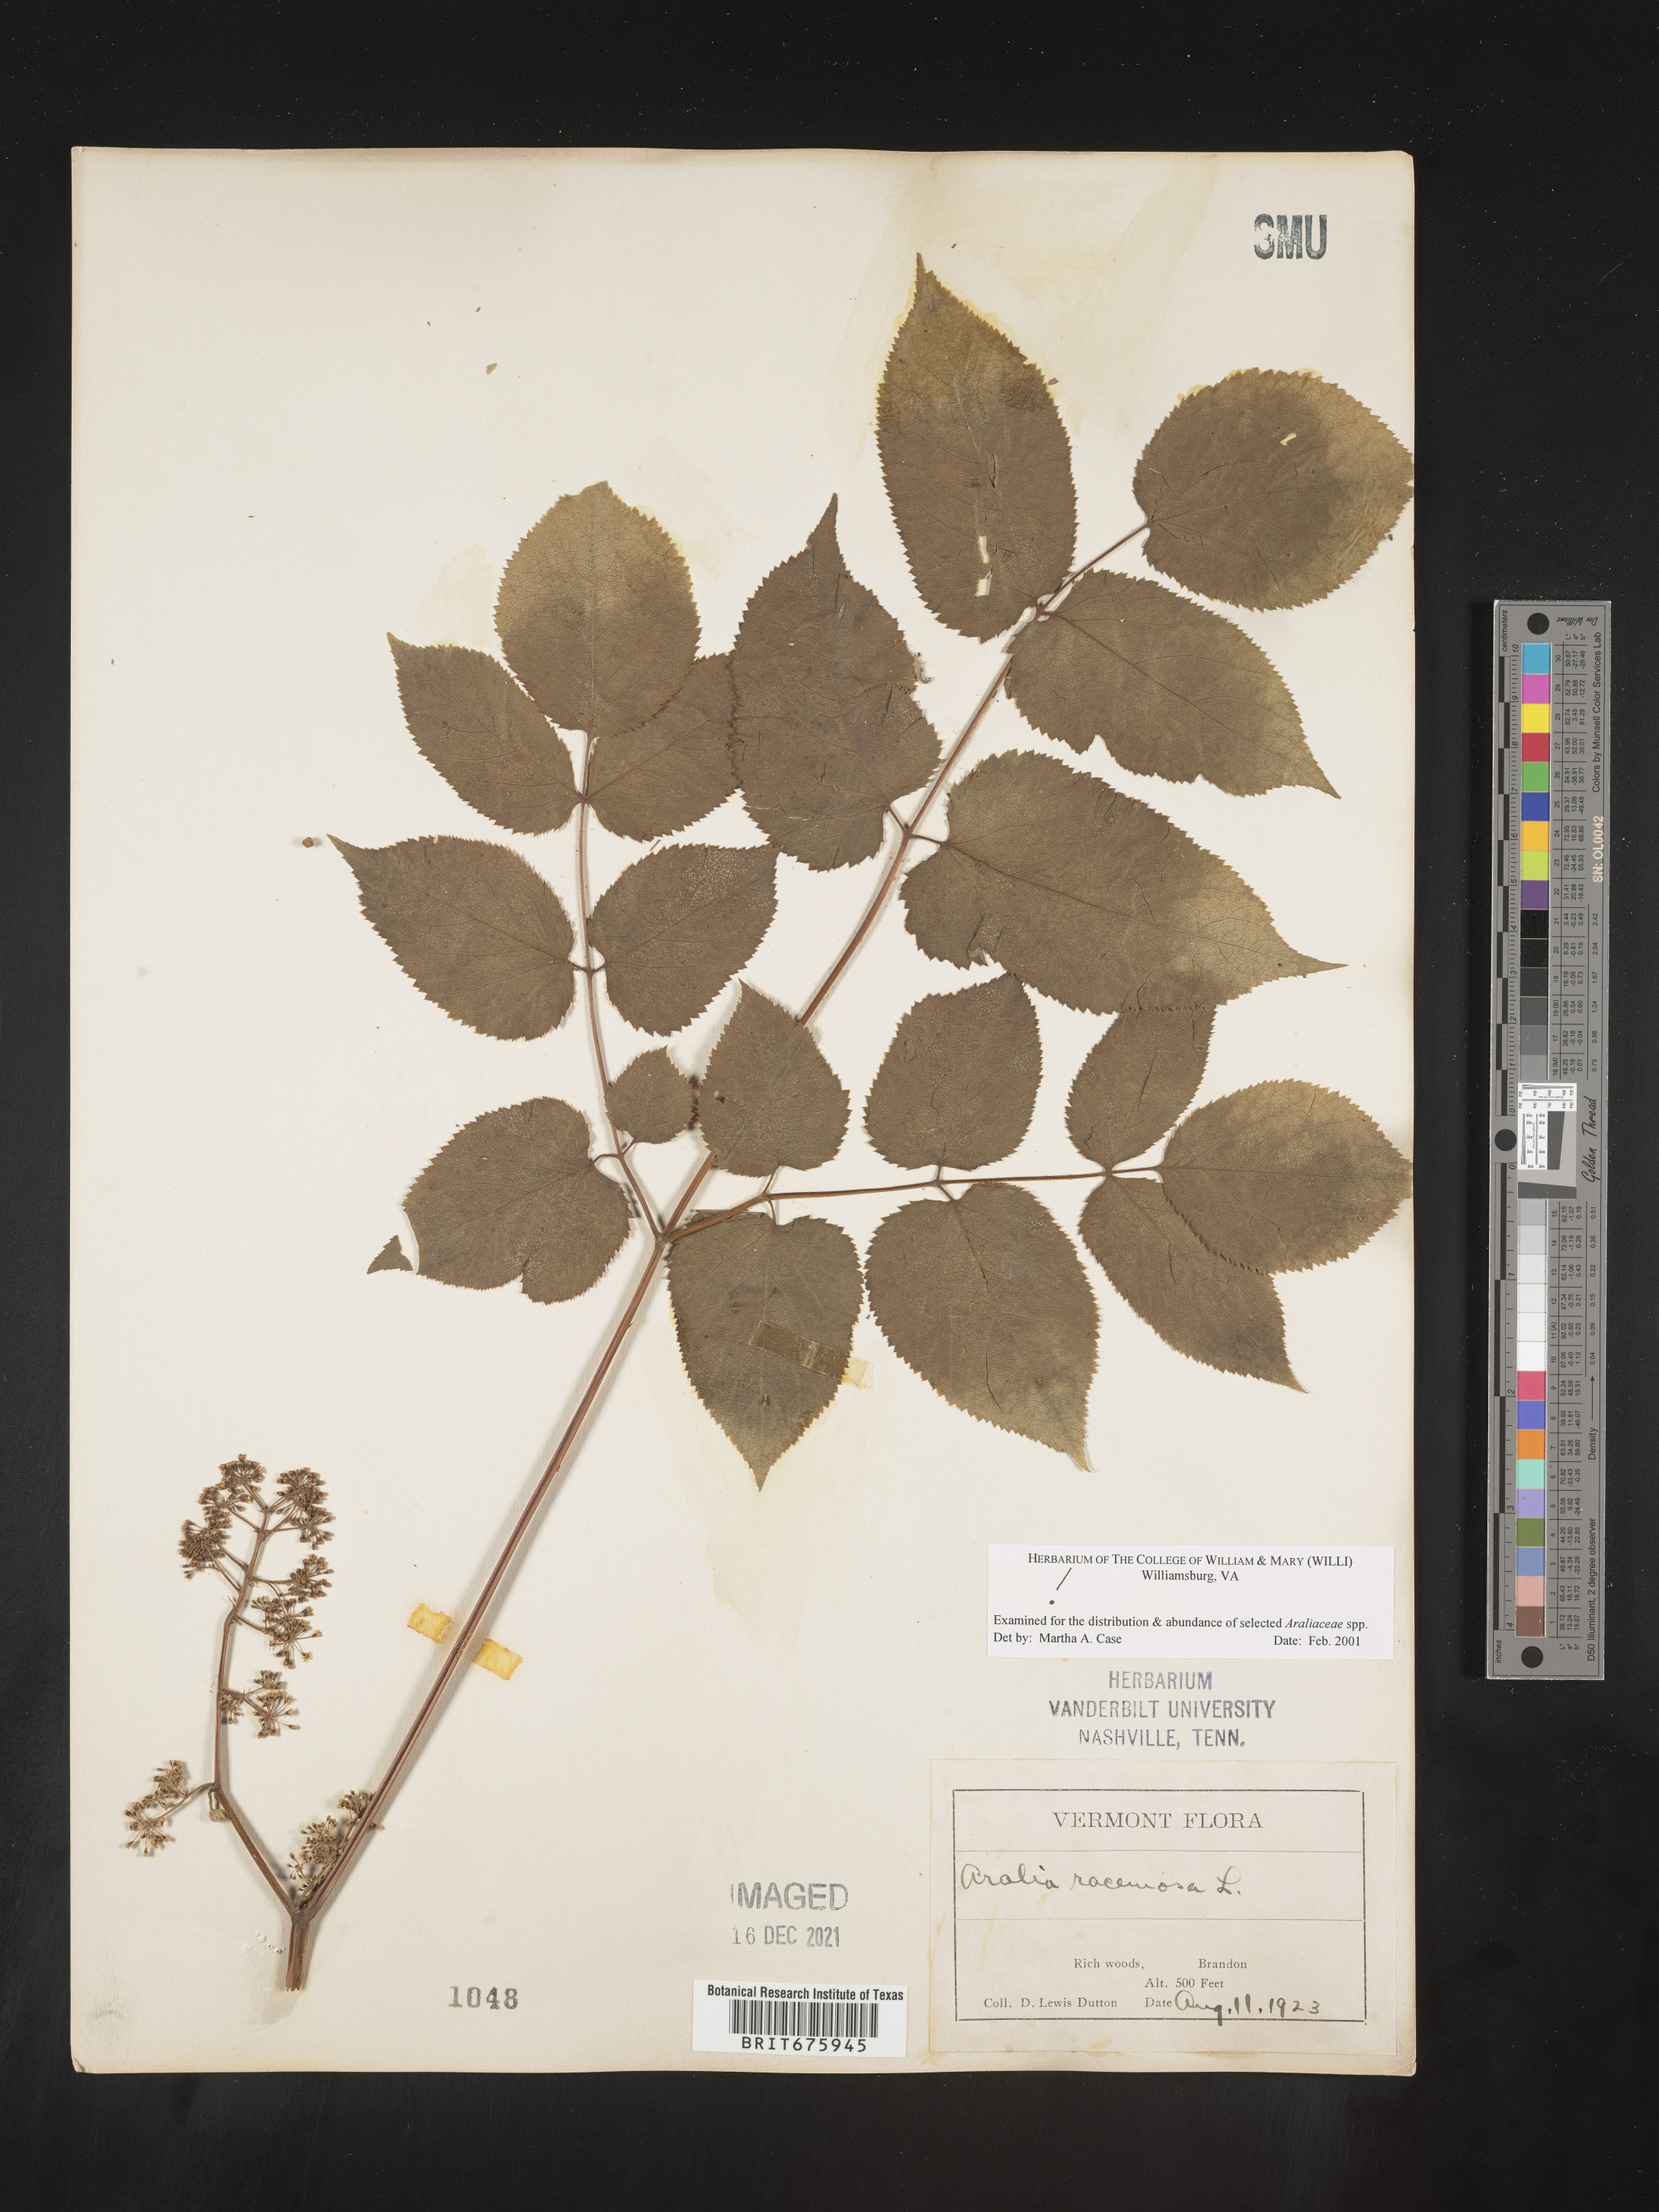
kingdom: Plantae
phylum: Tracheophyta
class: Magnoliopsida
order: Apiales
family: Araliaceae
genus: Aralia
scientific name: Aralia racemosa
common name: American-spikenard
